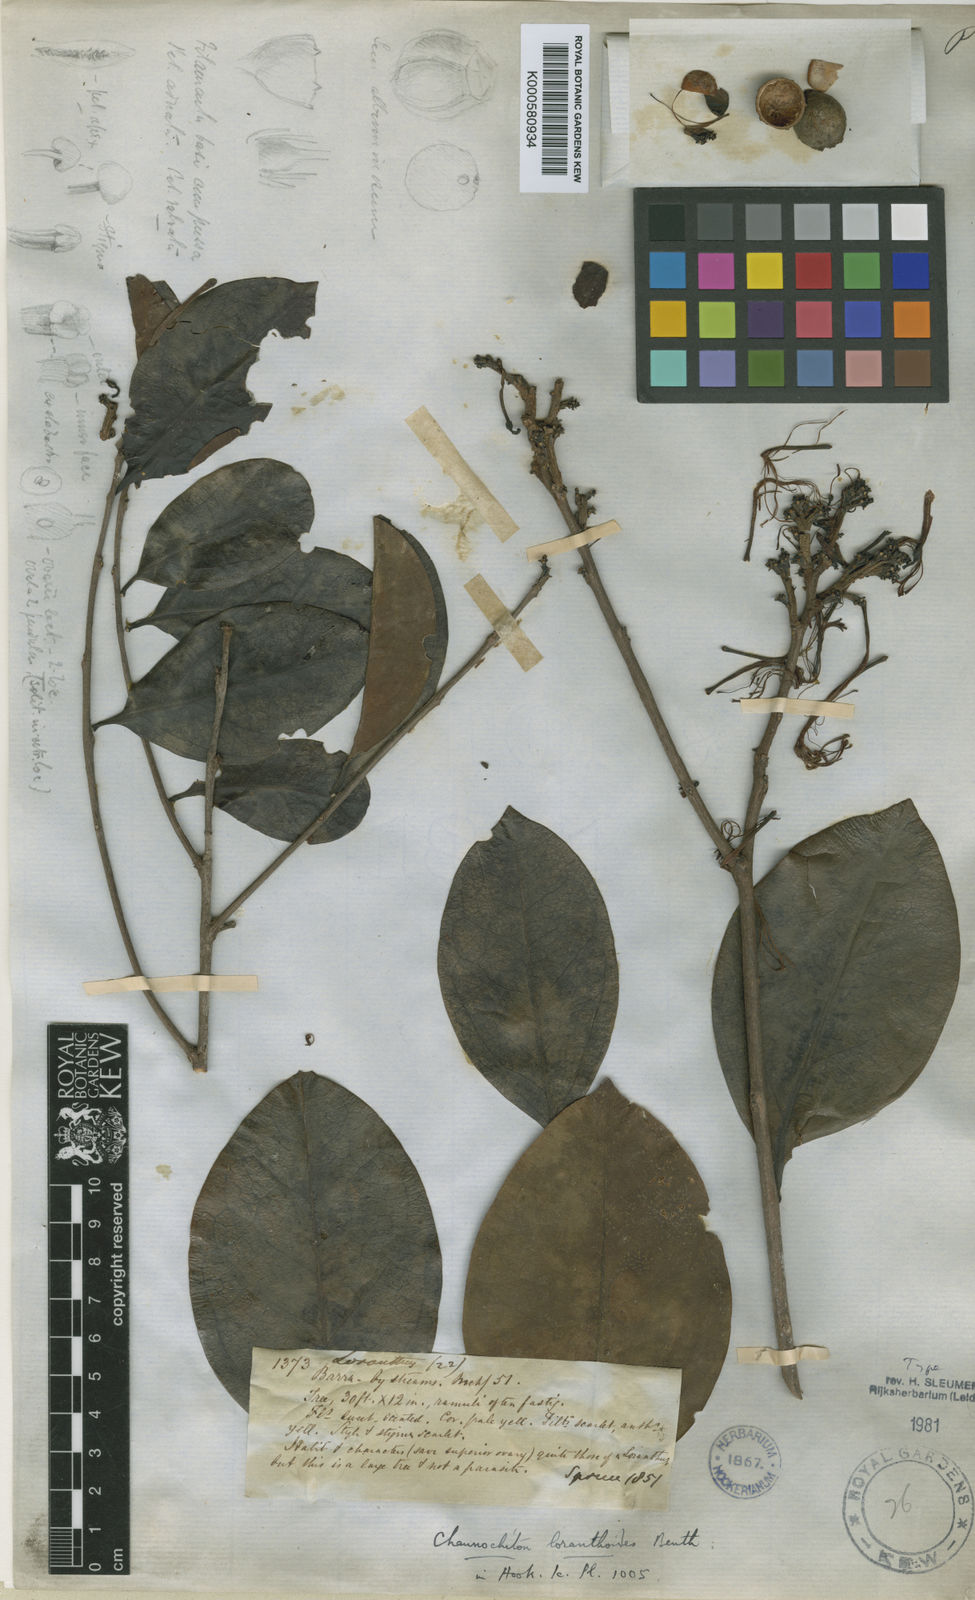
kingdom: Plantae
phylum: Tracheophyta
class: Magnoliopsida
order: Santalales
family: Aptandraceae
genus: Chaunochiton
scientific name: Chaunochiton loranthoides
